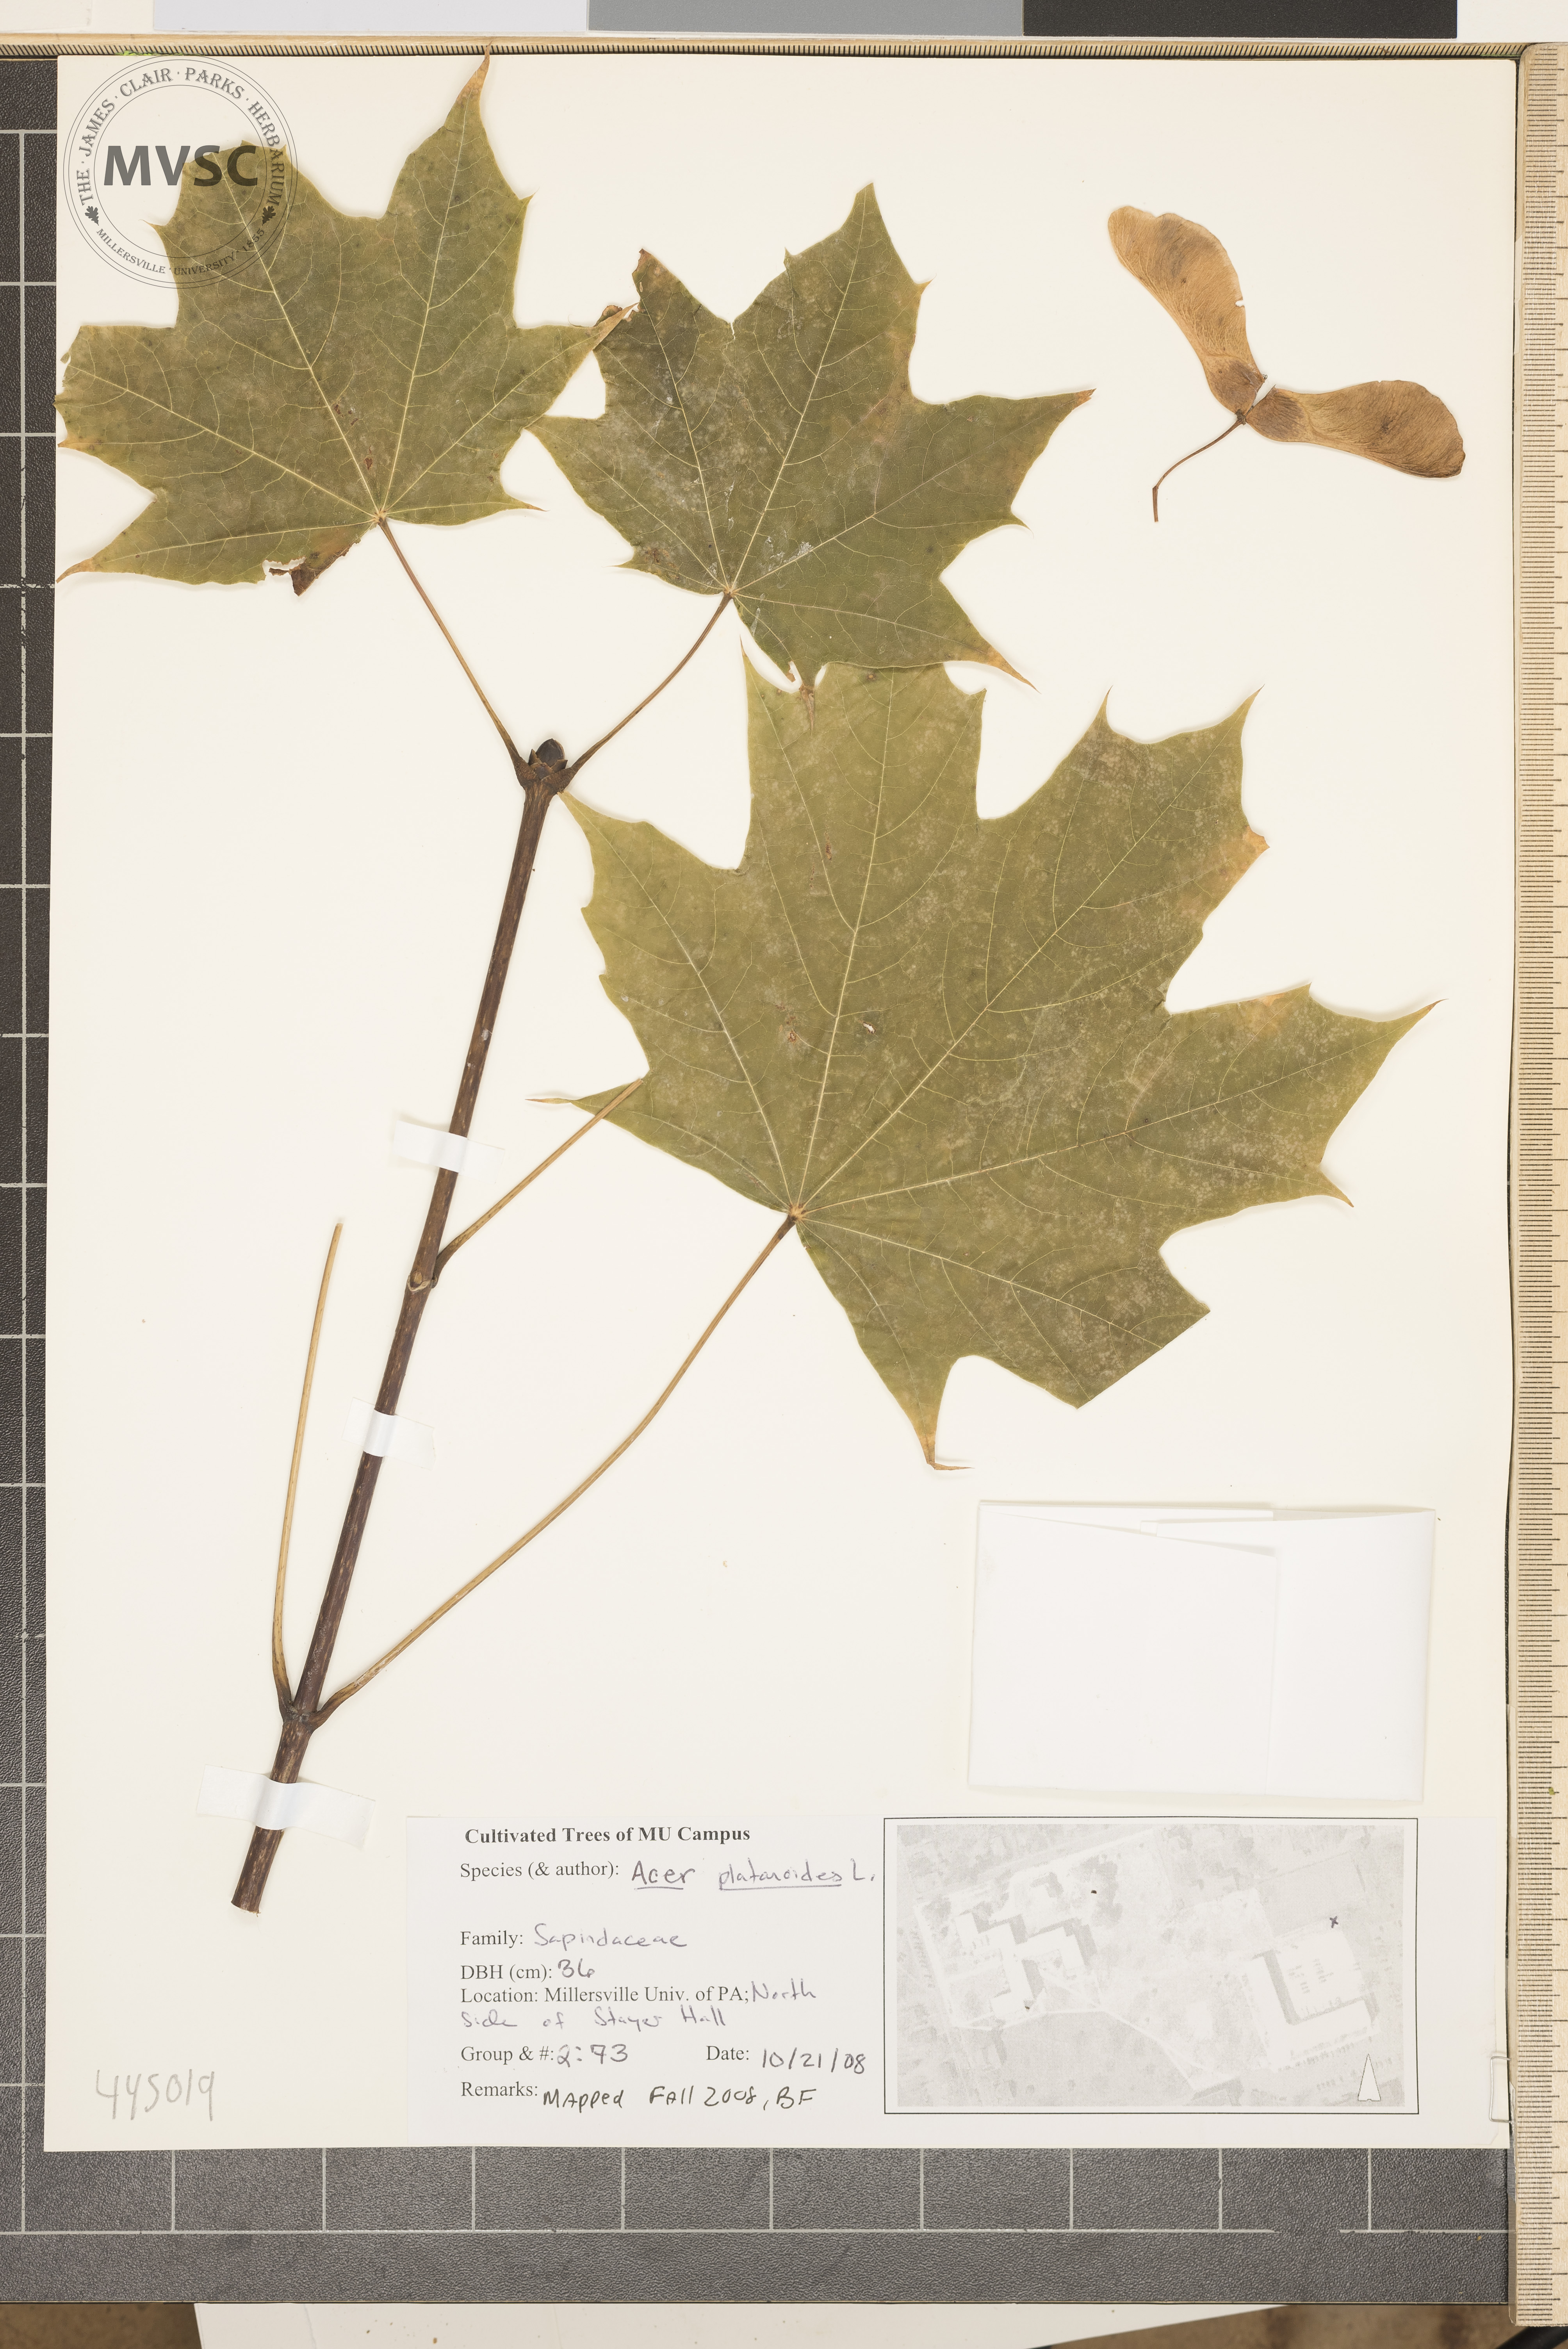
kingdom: Plantae
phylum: Tracheophyta
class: Magnoliopsida
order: Sapindales
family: Sapindaceae
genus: Acer
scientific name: Acer platanoides
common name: Norway maple
